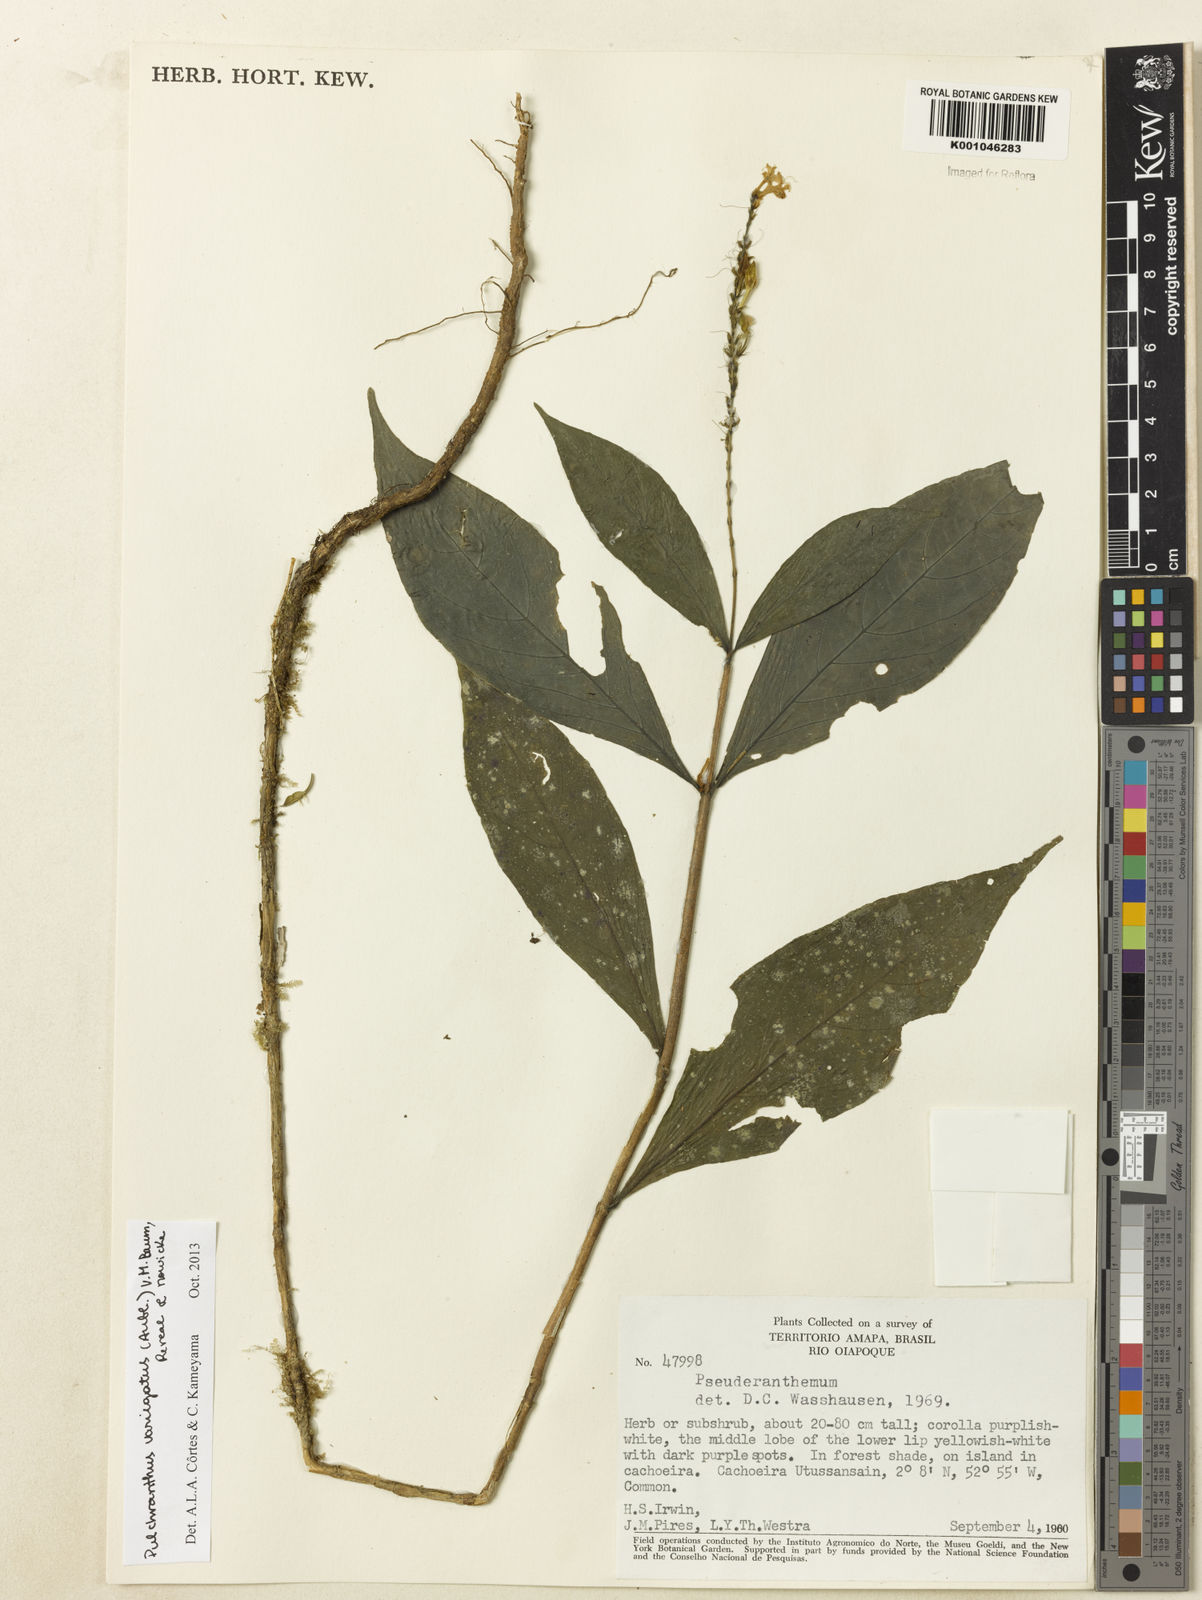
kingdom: Plantae
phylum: Tracheophyta
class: Magnoliopsida
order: Lamiales
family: Acanthaceae
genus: Pulchranthus
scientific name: Pulchranthus
